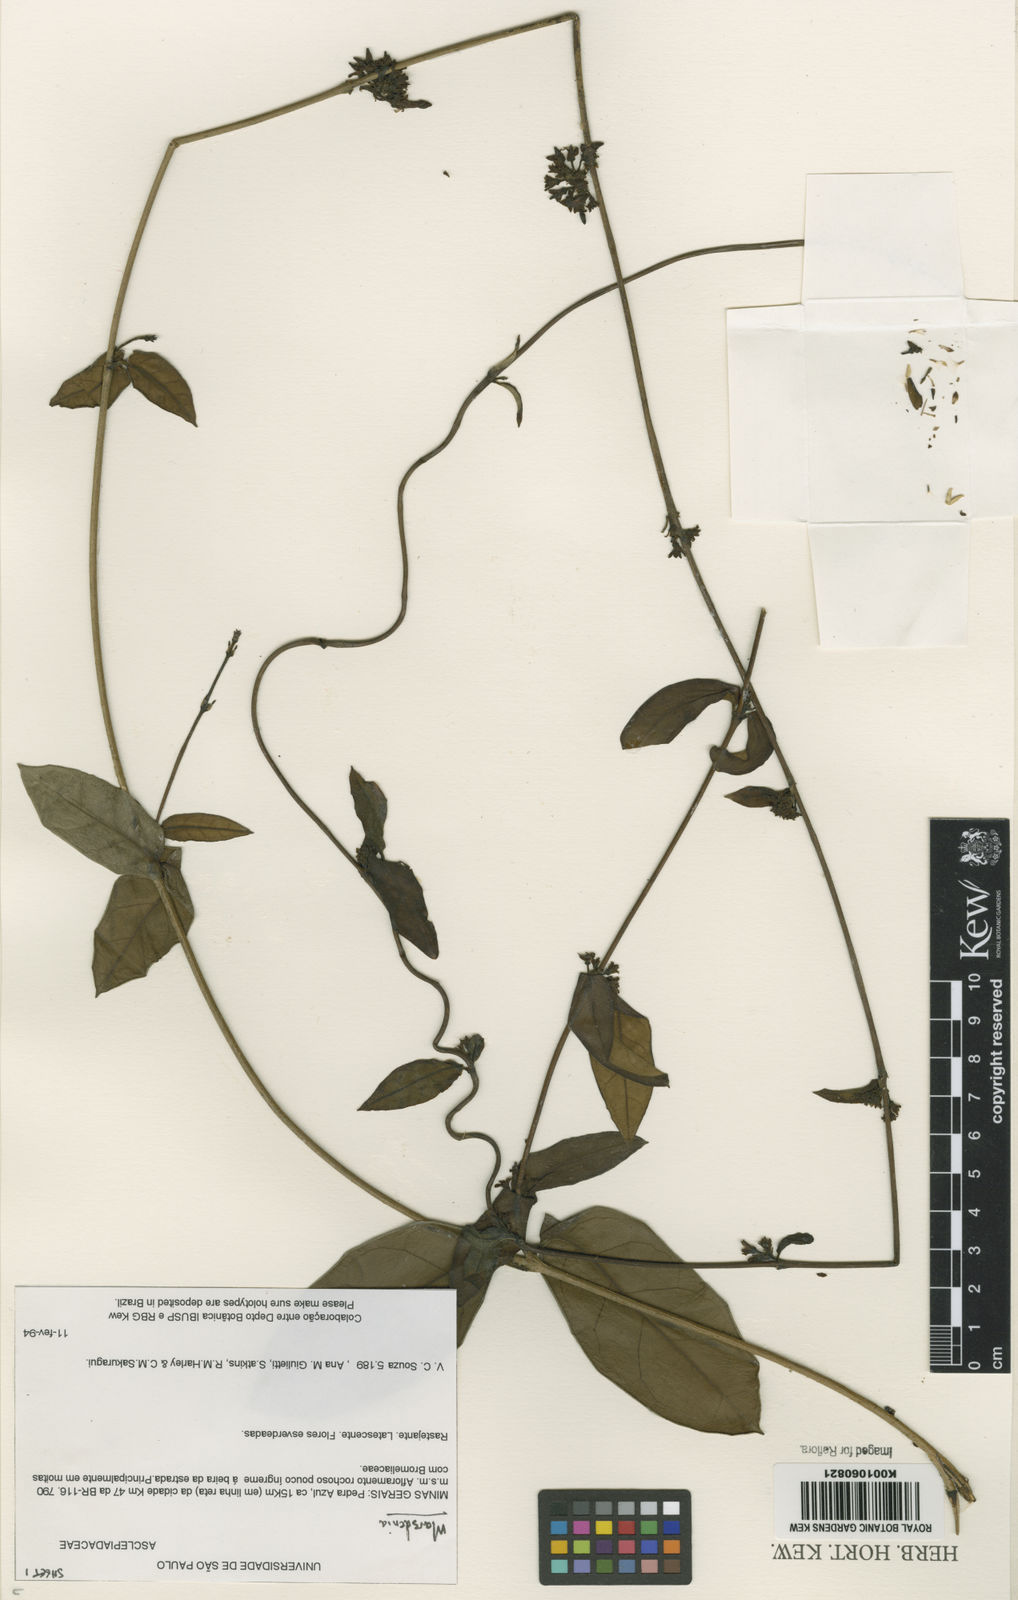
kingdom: Plantae
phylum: Tracheophyta
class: Magnoliopsida
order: Gentianales
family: Apocynaceae
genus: Marsdenia
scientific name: Marsdenia
